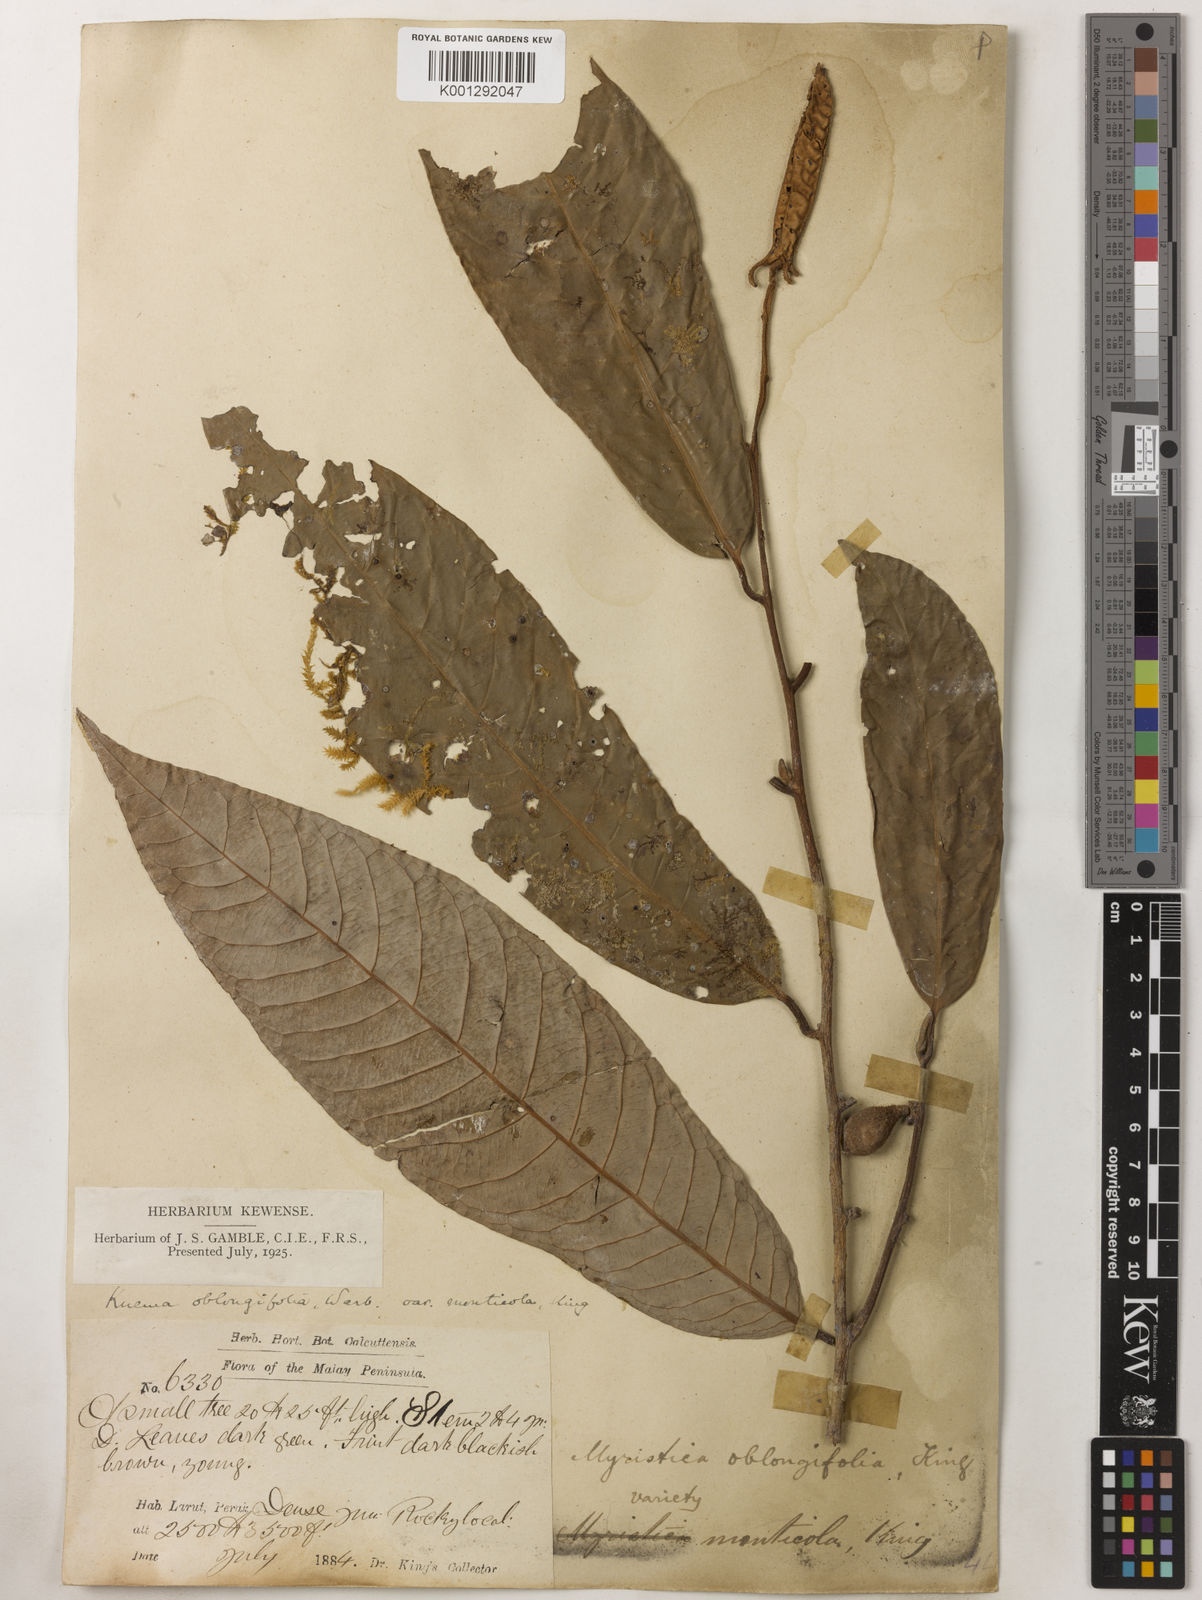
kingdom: Plantae
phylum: Tracheophyta
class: Magnoliopsida
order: Magnoliales
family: Myristicaceae
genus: Knema
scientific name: Knema
